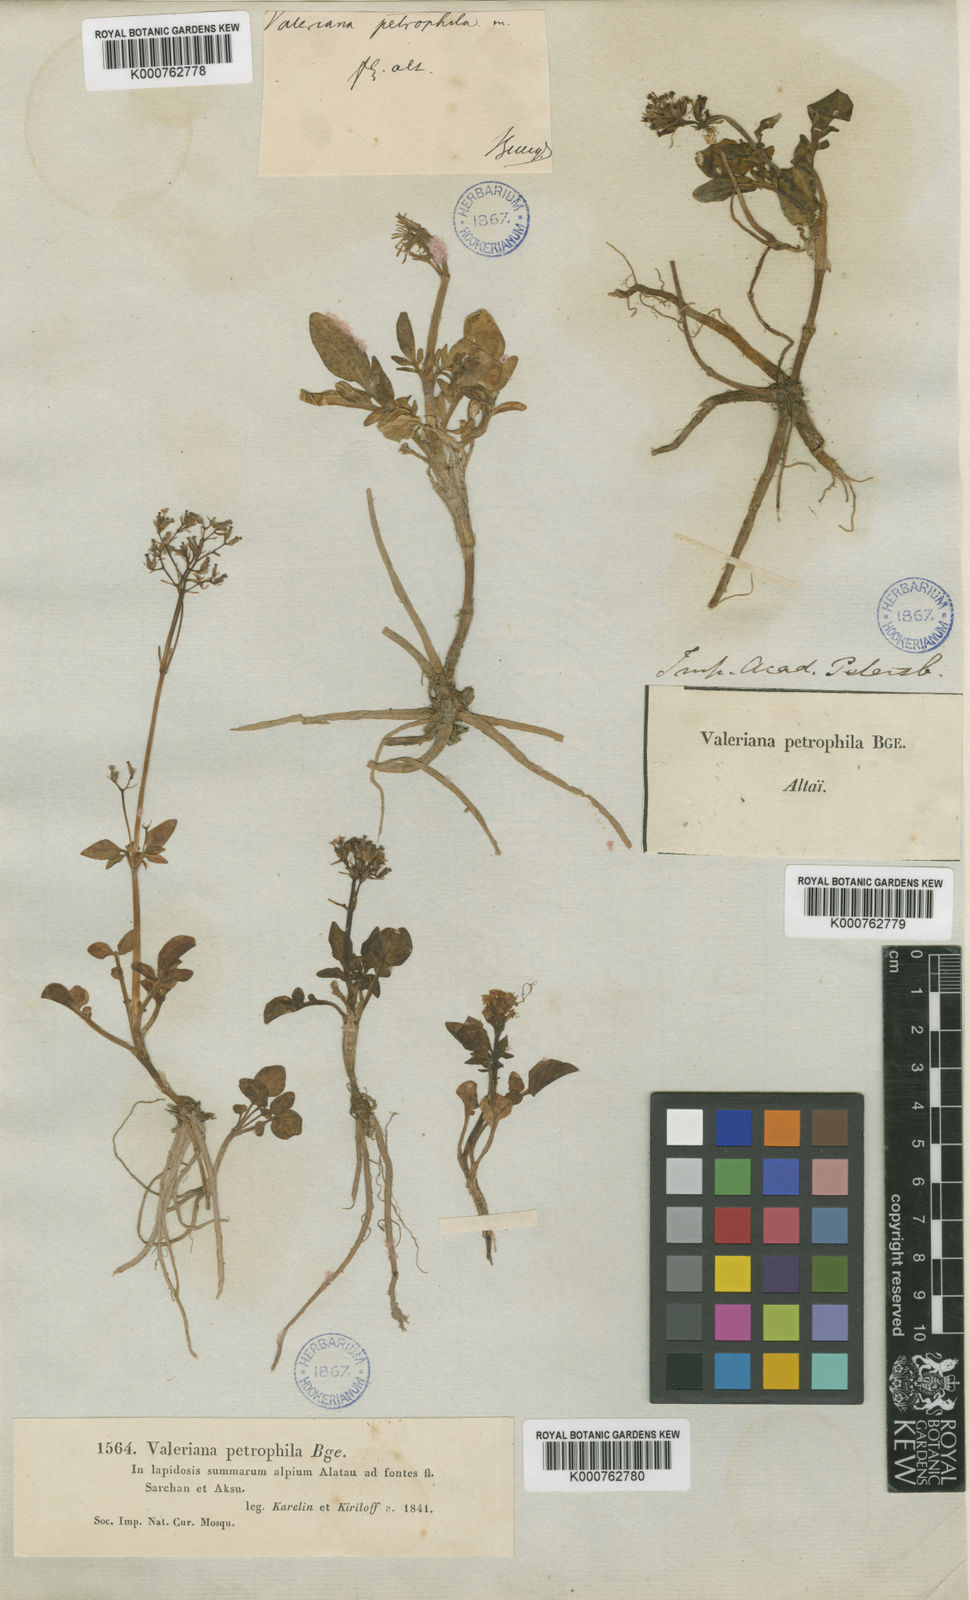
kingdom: Plantae
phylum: Tracheophyta
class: Magnoliopsida
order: Dipsacales
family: Caprifoliaceae
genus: Valeriana
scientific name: Valeriana petrophila
